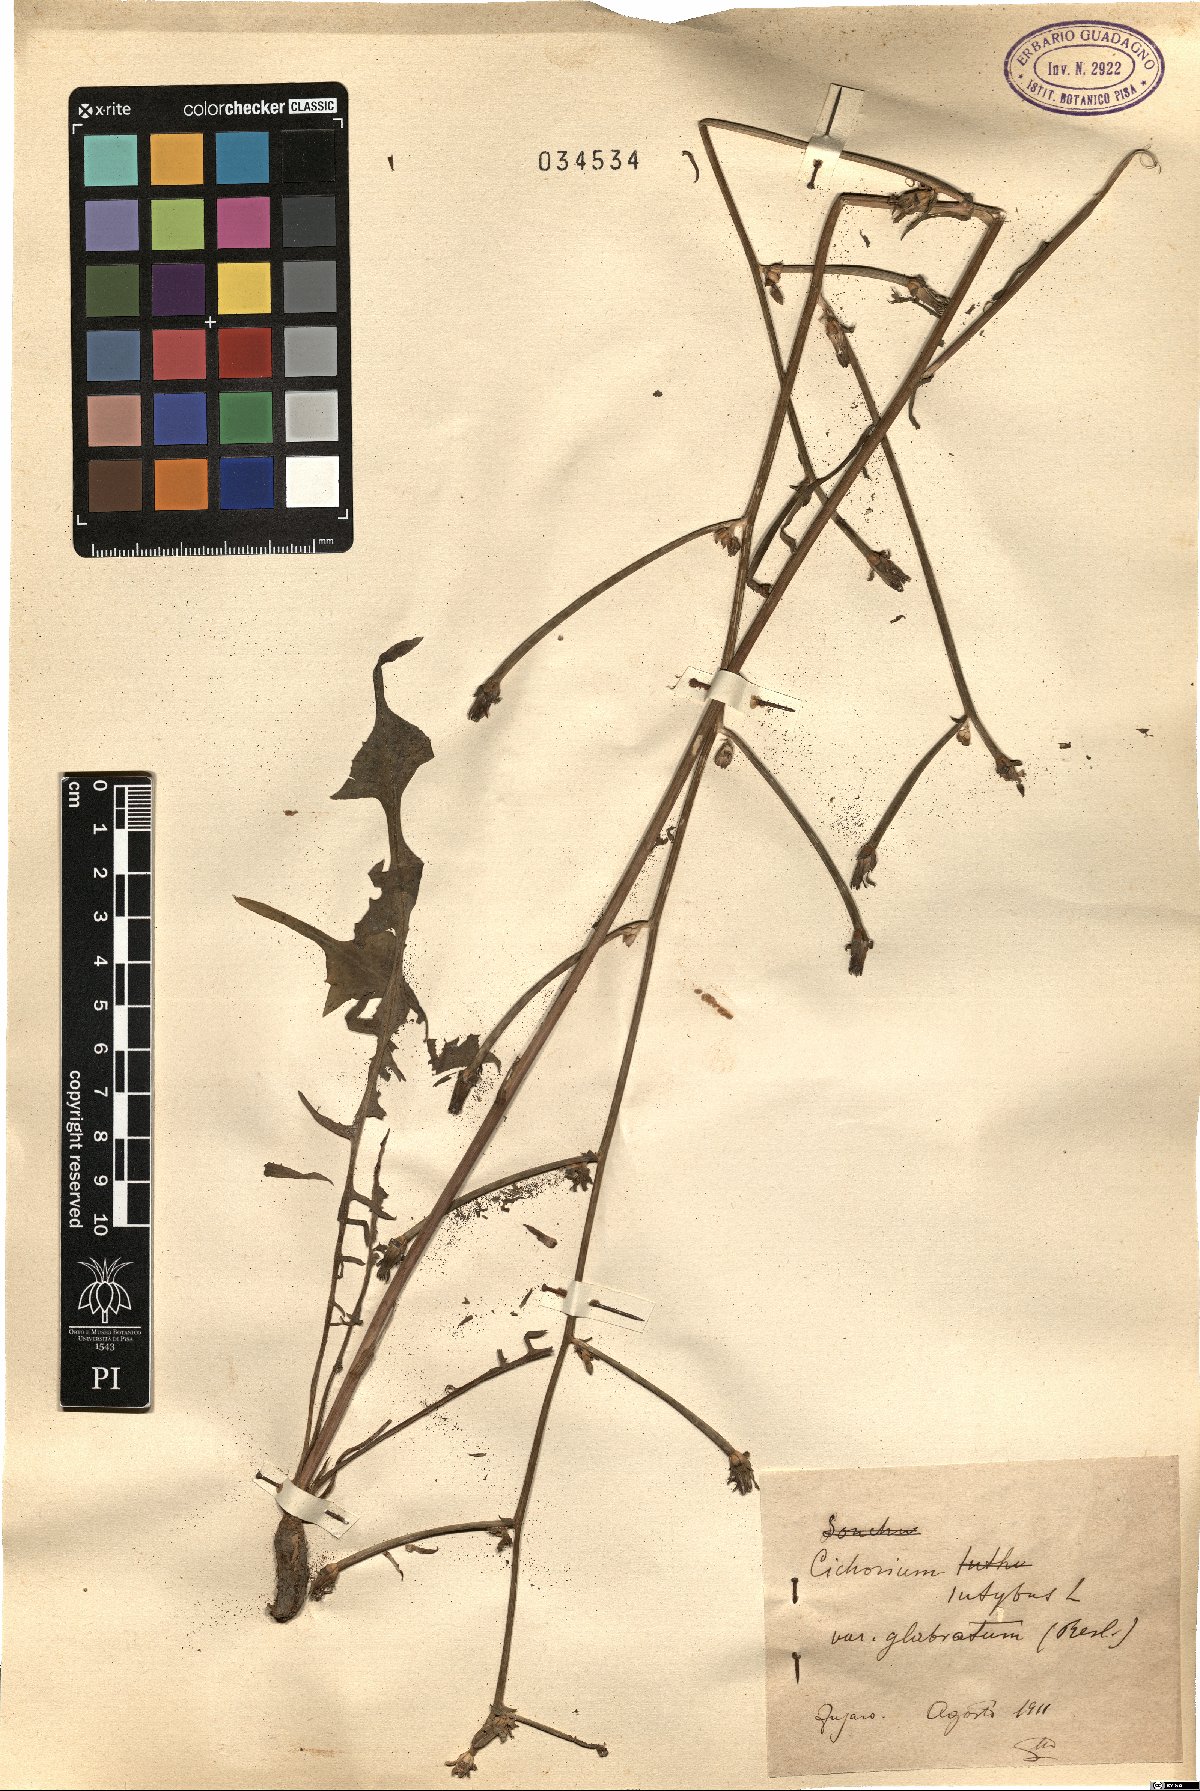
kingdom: Plantae
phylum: Tracheophyta
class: Magnoliopsida
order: Asterales
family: Asteraceae
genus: Cichorium
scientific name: Cichorium intybus
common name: Chicory
